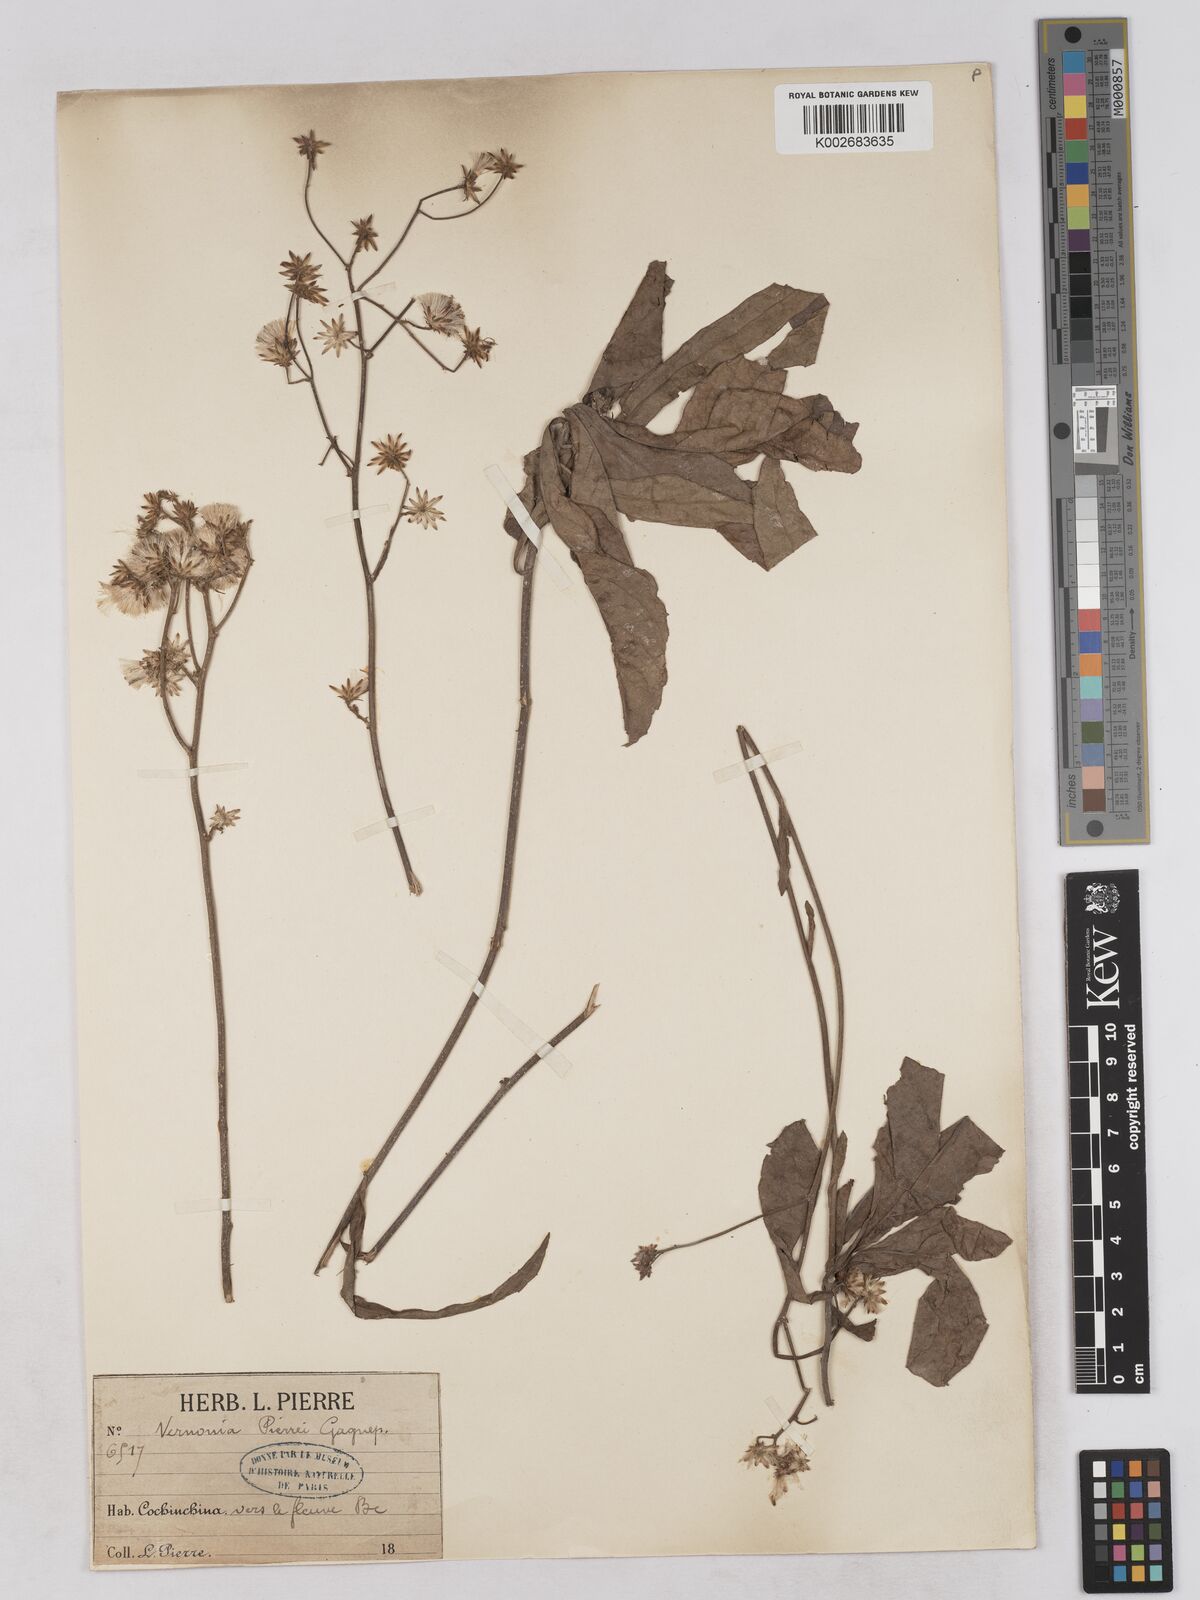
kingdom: Plantae
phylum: Tracheophyta
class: Magnoliopsida
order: Asterales
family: Asteraceae
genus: Vernonia
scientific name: Vernonia pierrei
